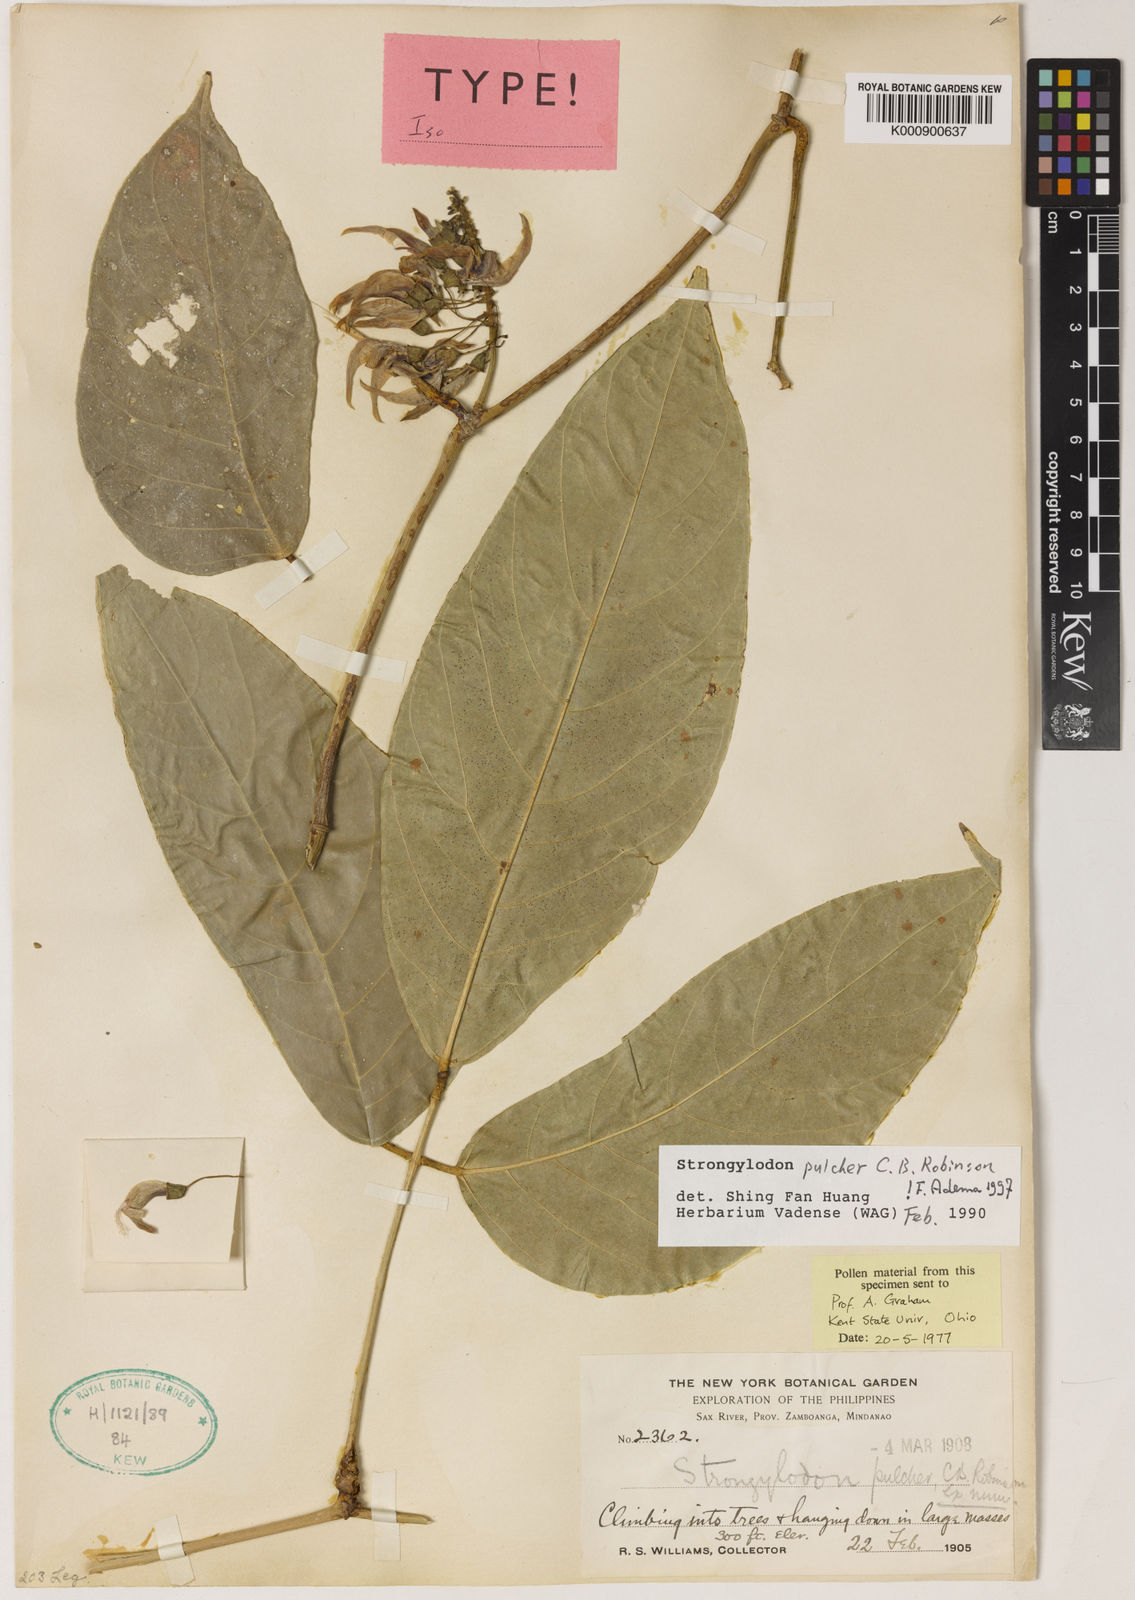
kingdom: Plantae
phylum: Tracheophyta
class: Magnoliopsida
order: Fabales
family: Fabaceae
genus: Strongylodon
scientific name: Strongylodon pulcher
